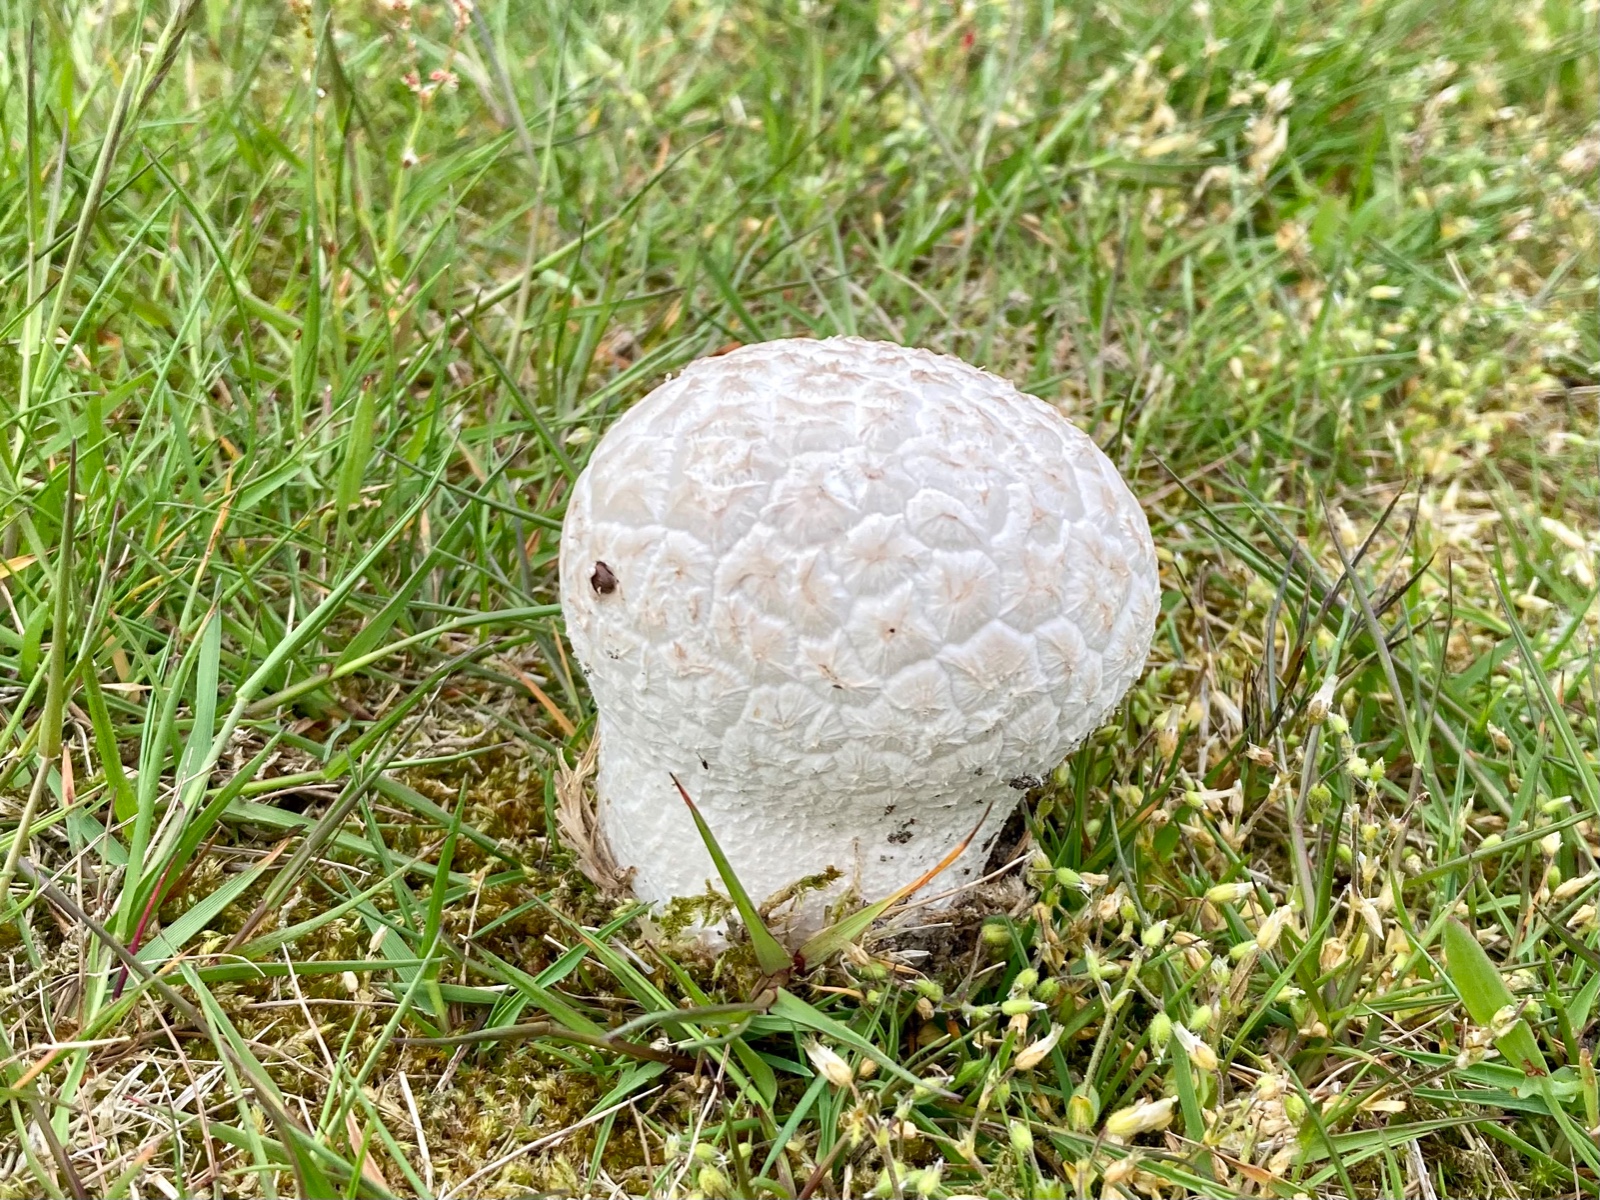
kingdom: Fungi
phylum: Basidiomycota
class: Agaricomycetes
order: Agaricales
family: Lycoperdaceae
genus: Bovistella
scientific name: Bovistella utriformis
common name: skællet støvbold
